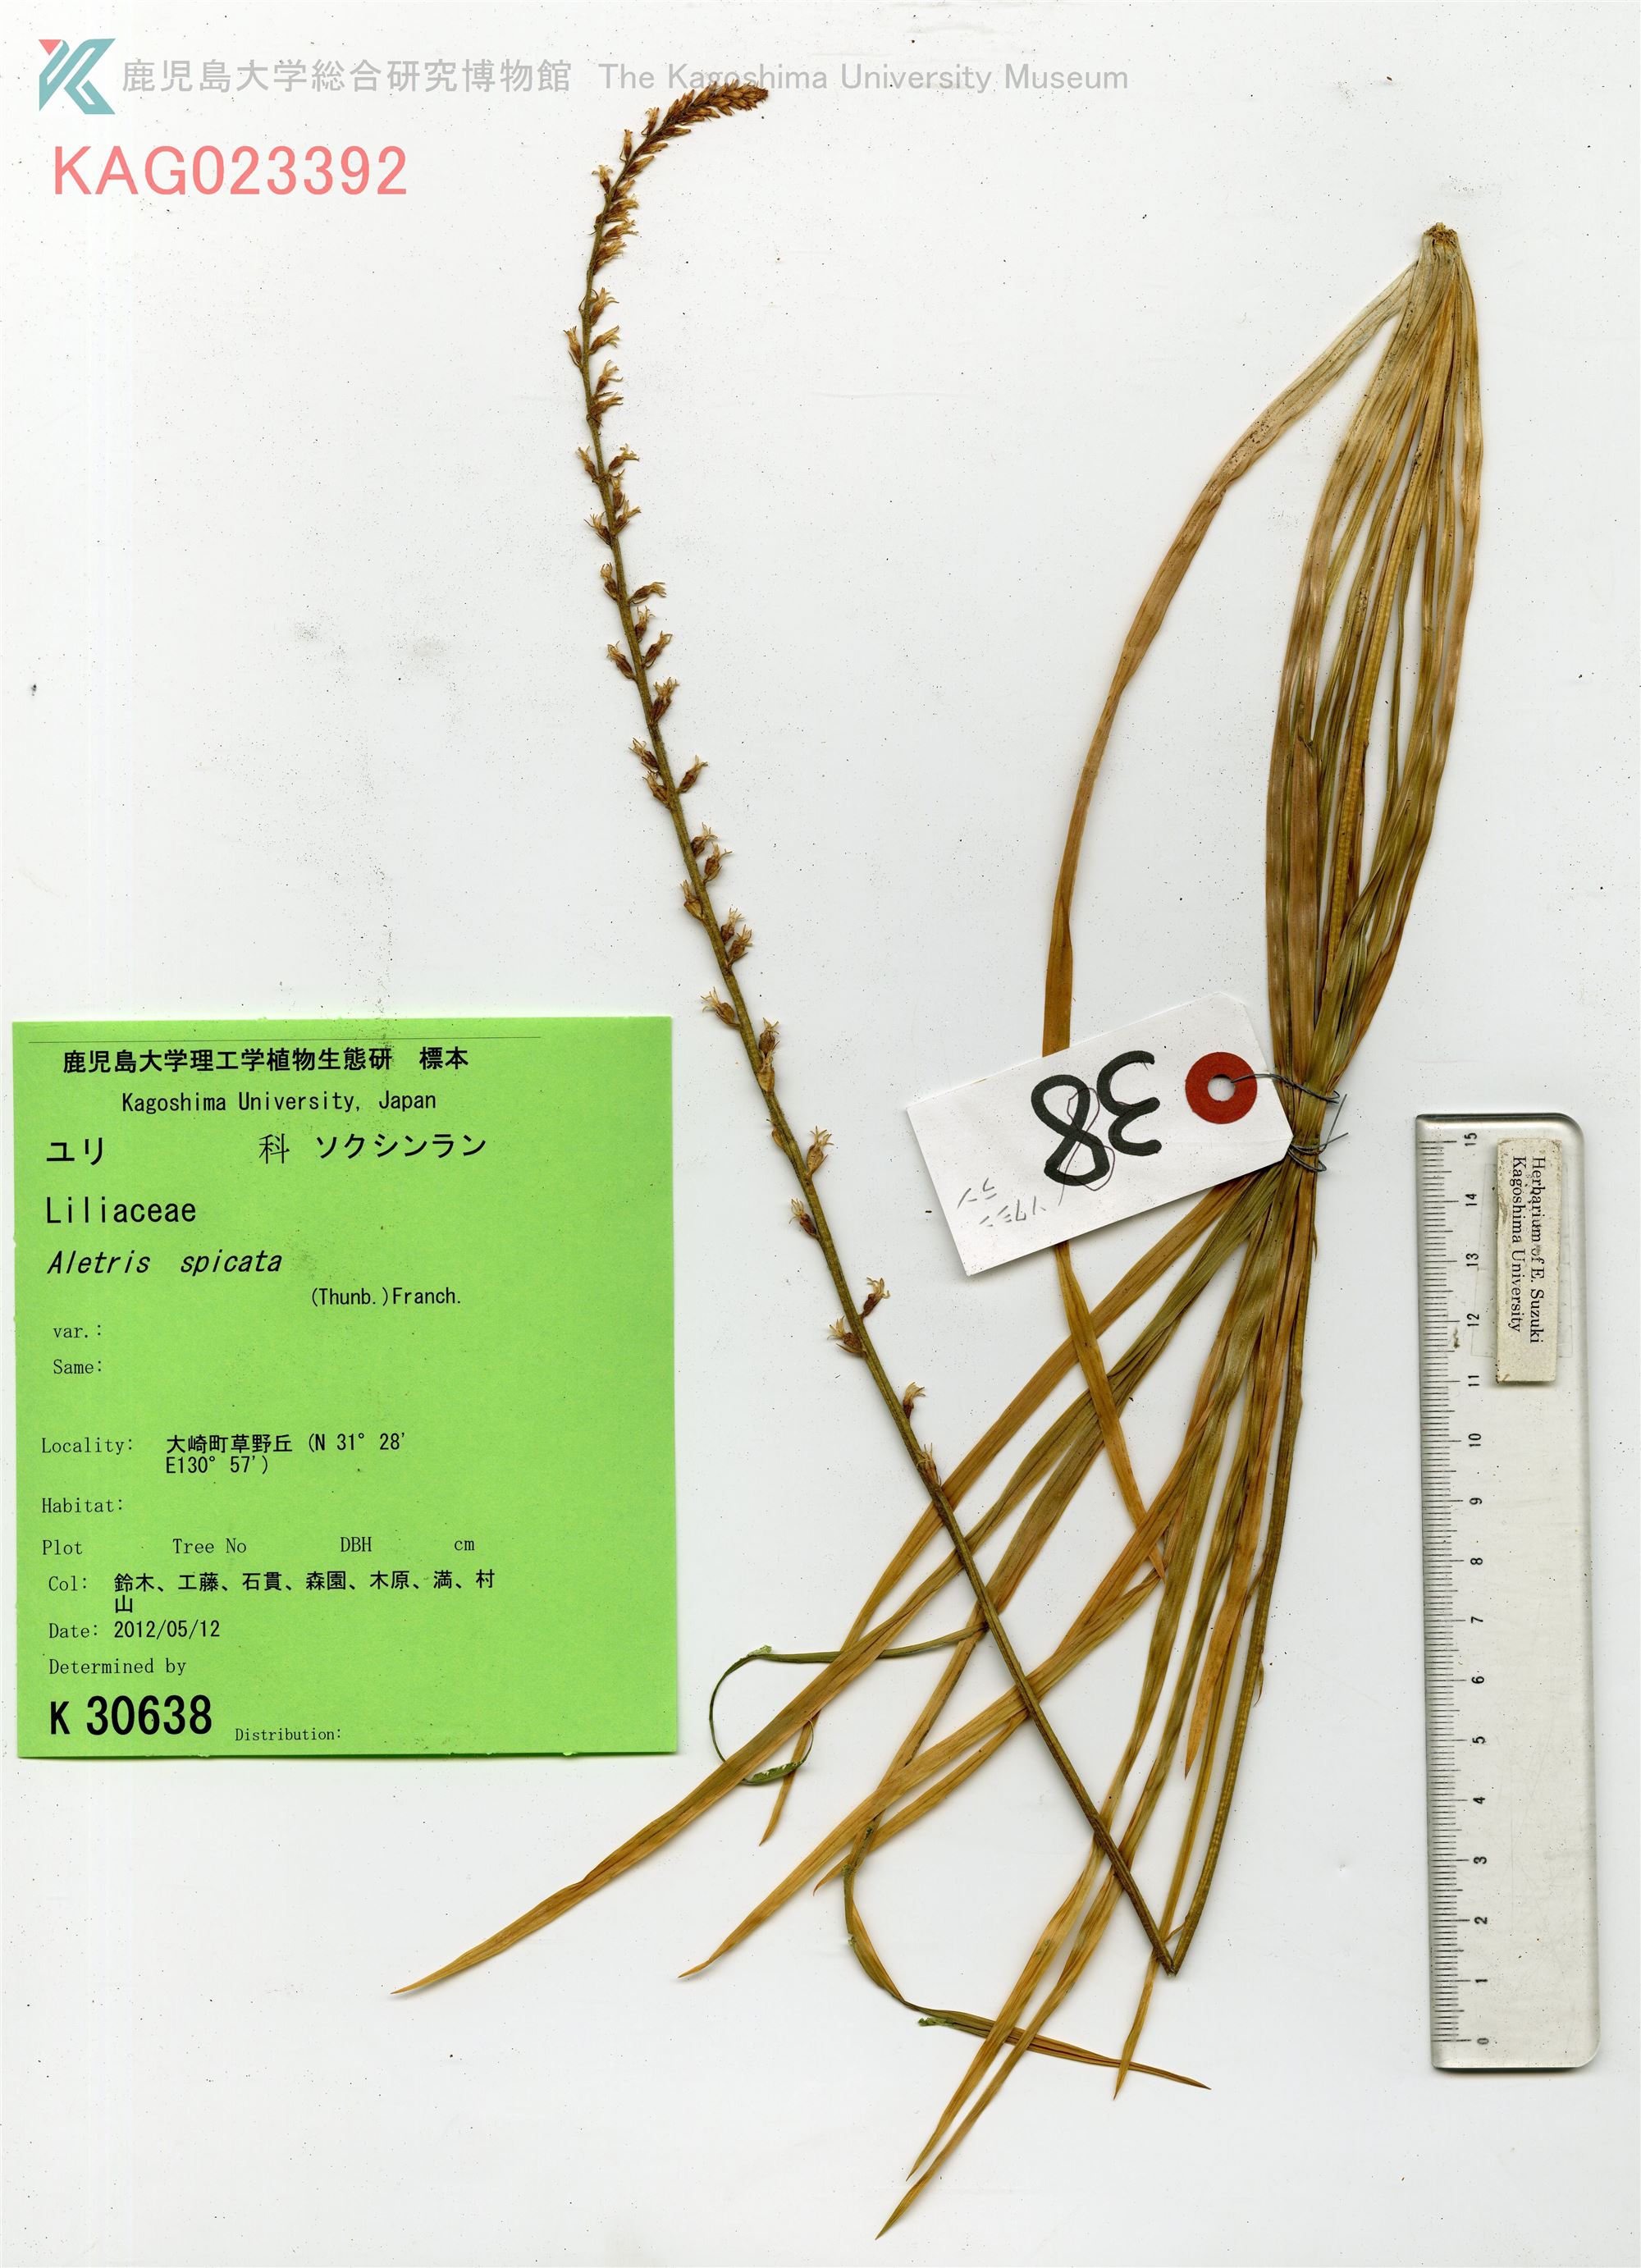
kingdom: Plantae
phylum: Tracheophyta
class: Liliopsida
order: Dioscoreales
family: Nartheciaceae
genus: Aletris
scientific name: Aletris spicata
